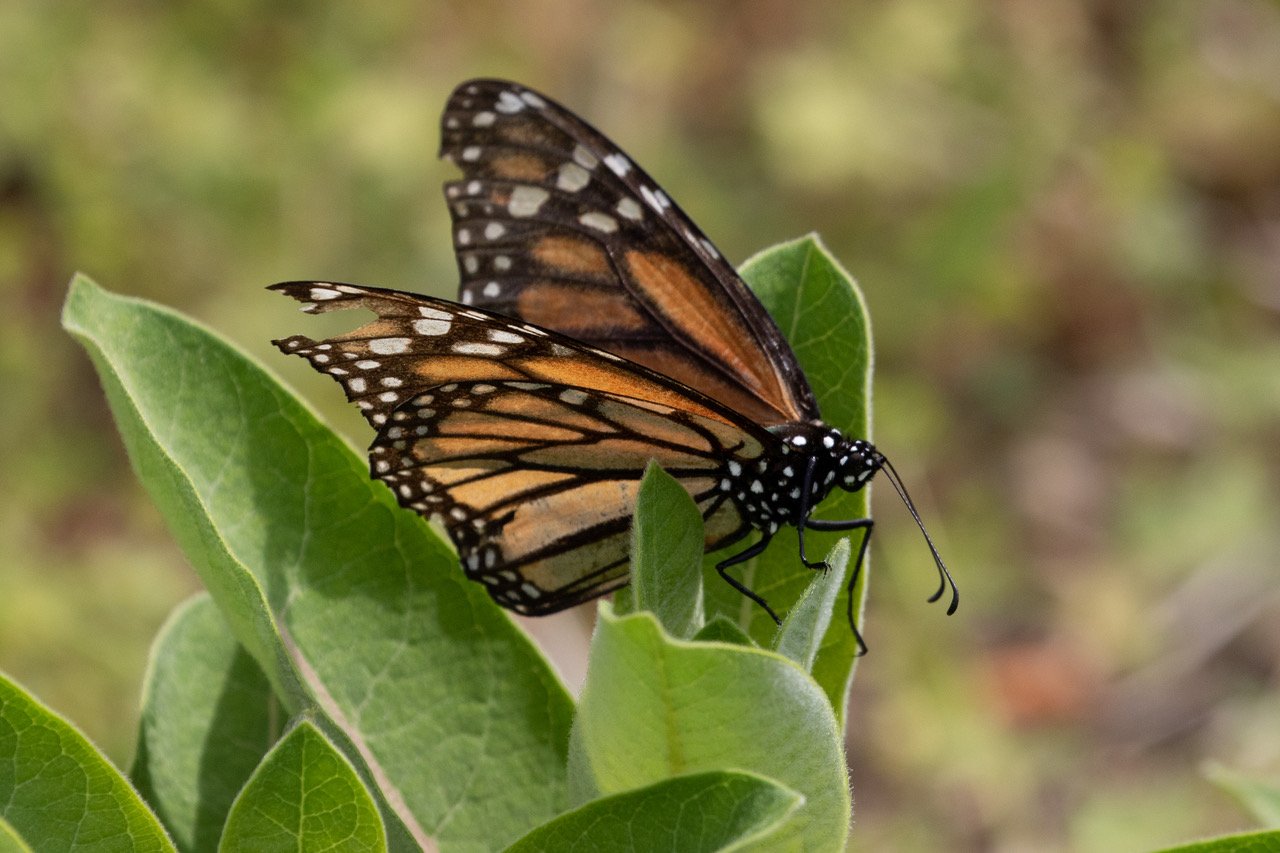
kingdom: Animalia
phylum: Arthropoda
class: Insecta
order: Lepidoptera
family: Nymphalidae
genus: Danaus
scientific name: Danaus plexippus
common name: Monarch
